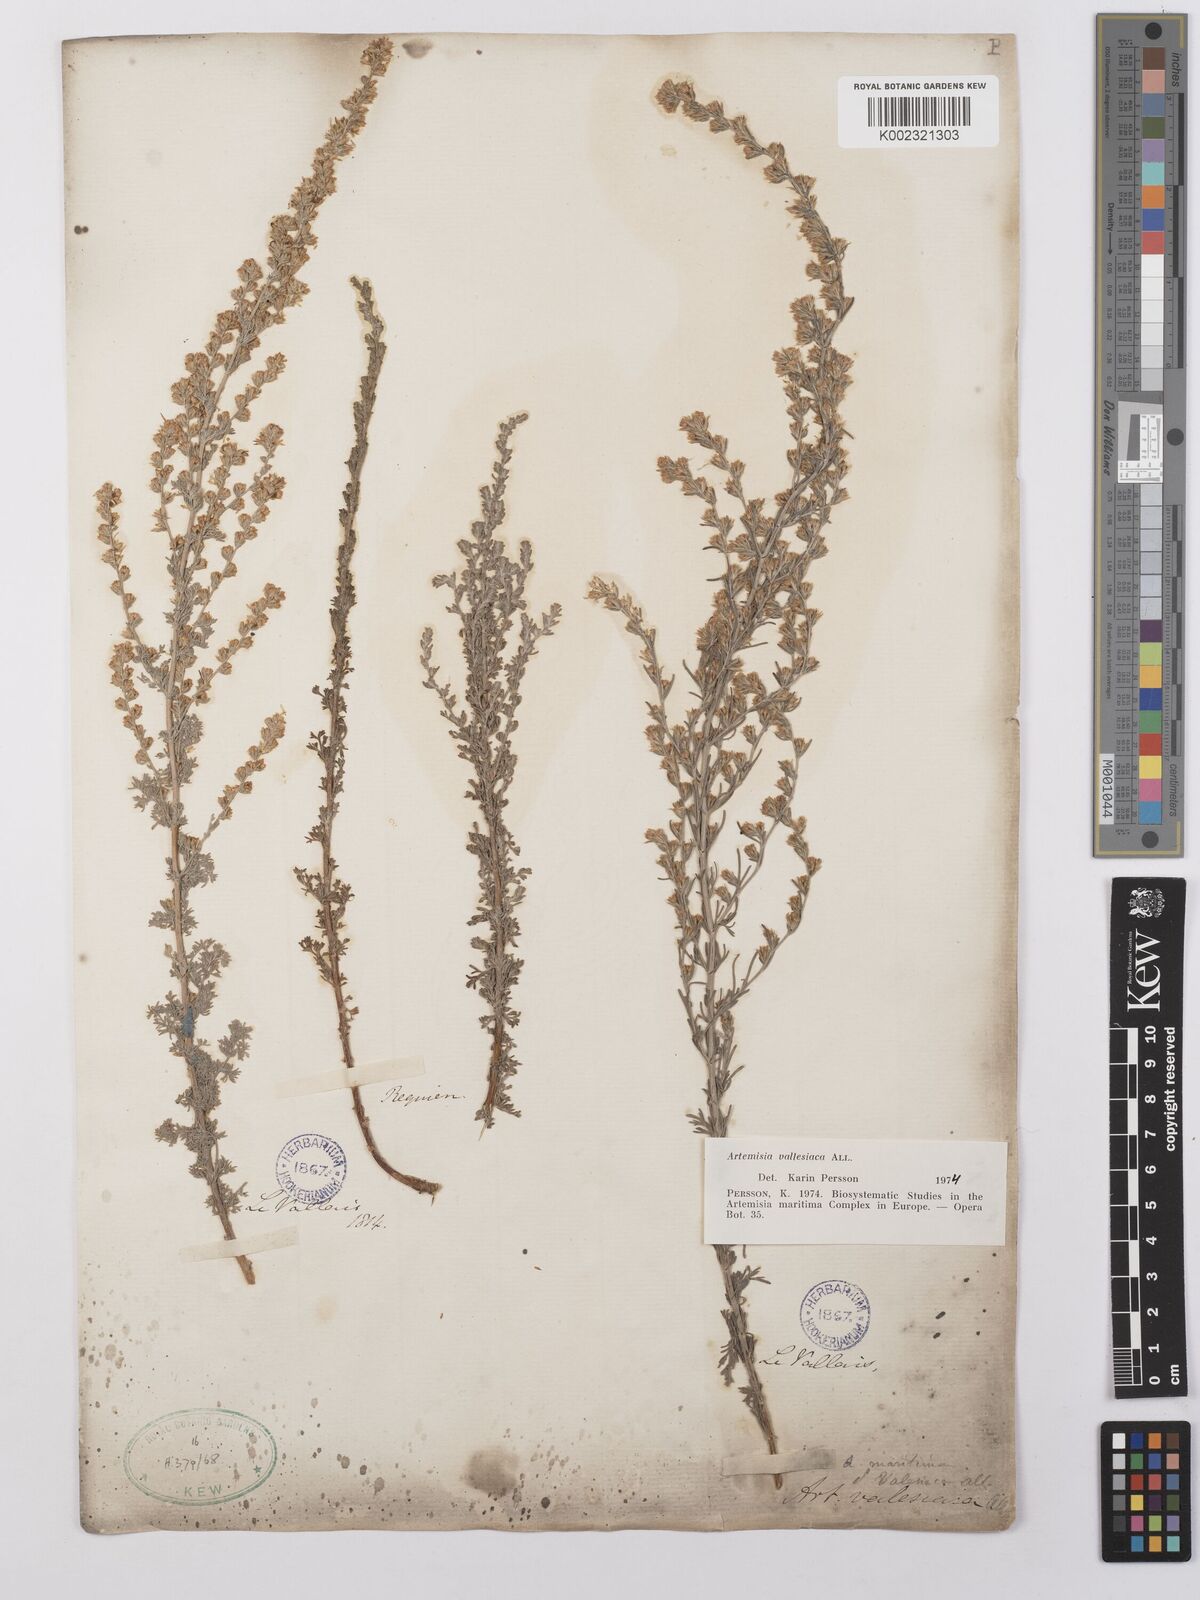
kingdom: Plantae
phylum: Tracheophyta
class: Magnoliopsida
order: Asterales
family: Asteraceae
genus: Artemisia
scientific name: Artemisia vallesiaca
